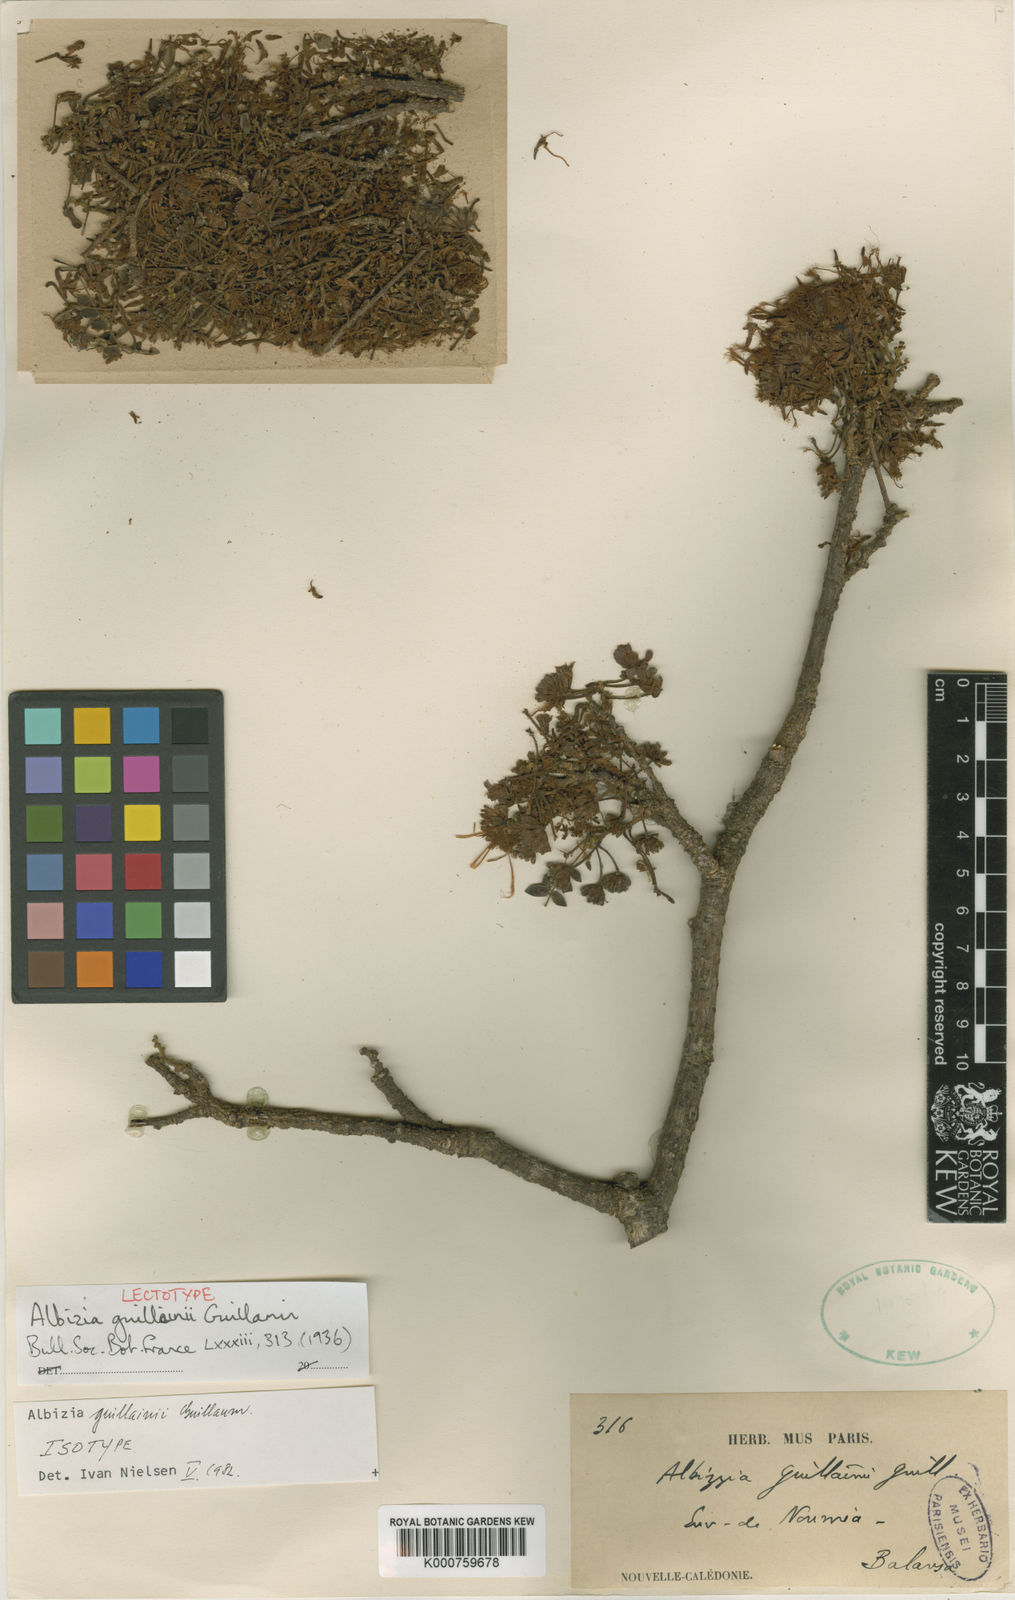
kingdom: Plantae
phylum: Tracheophyta
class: Magnoliopsida
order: Fabales
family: Fabaceae
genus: Albizia
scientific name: Albizia guillainii
